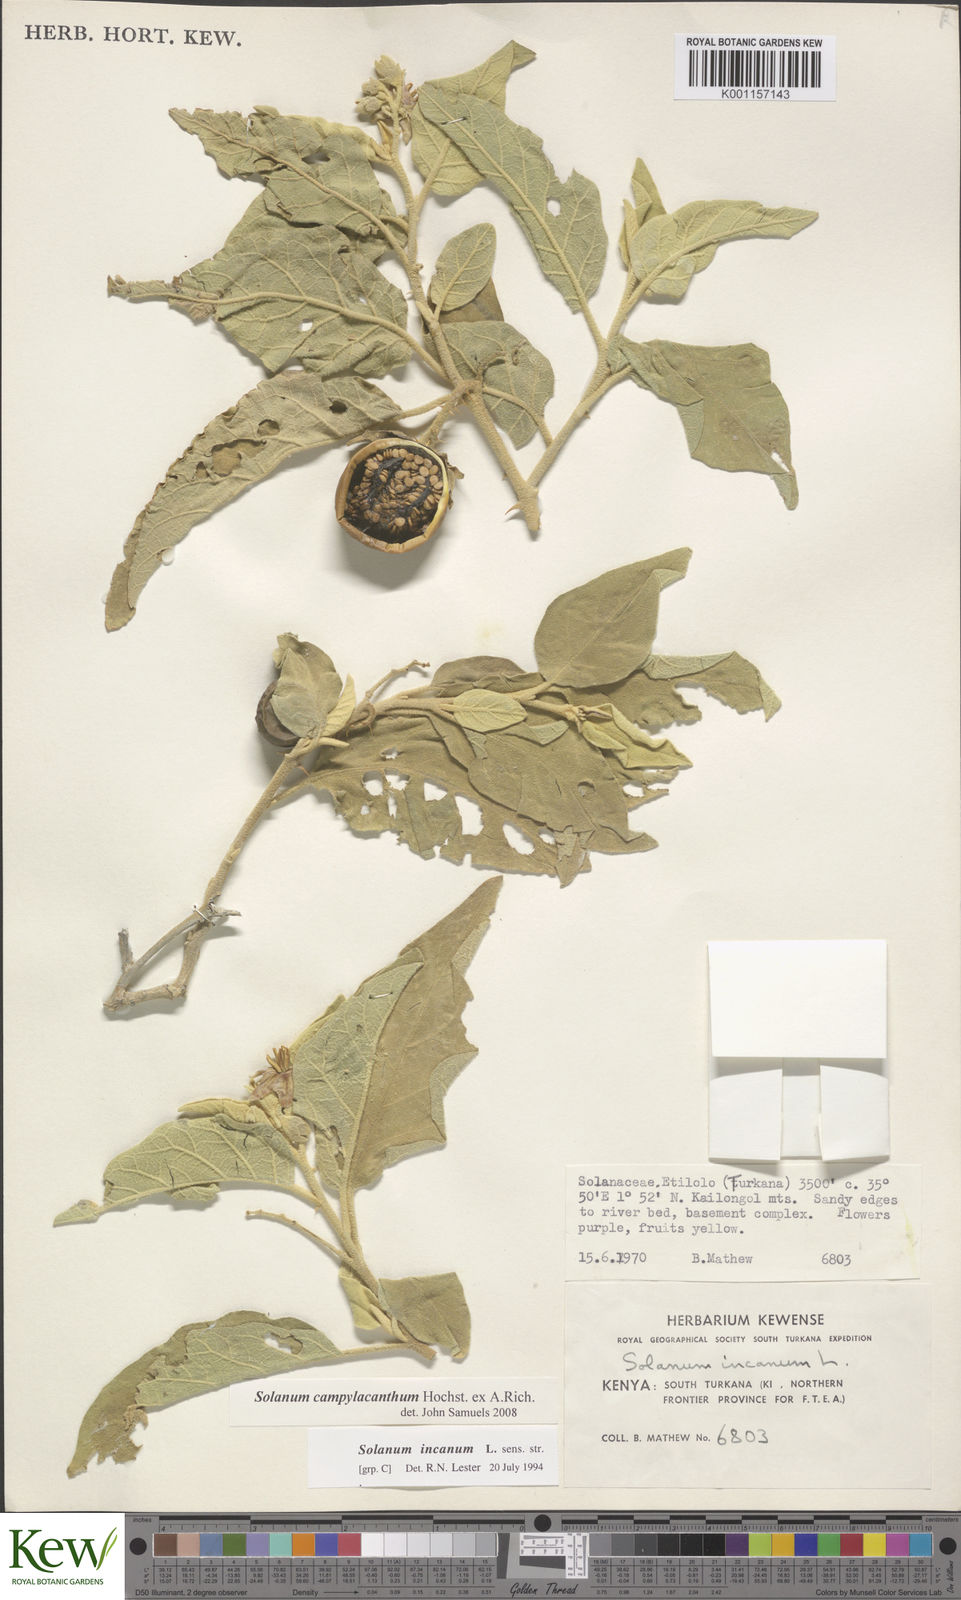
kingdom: Plantae
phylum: Tracheophyta
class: Magnoliopsida
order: Solanales
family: Solanaceae
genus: Solanum
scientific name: Solanum campylacanthum
